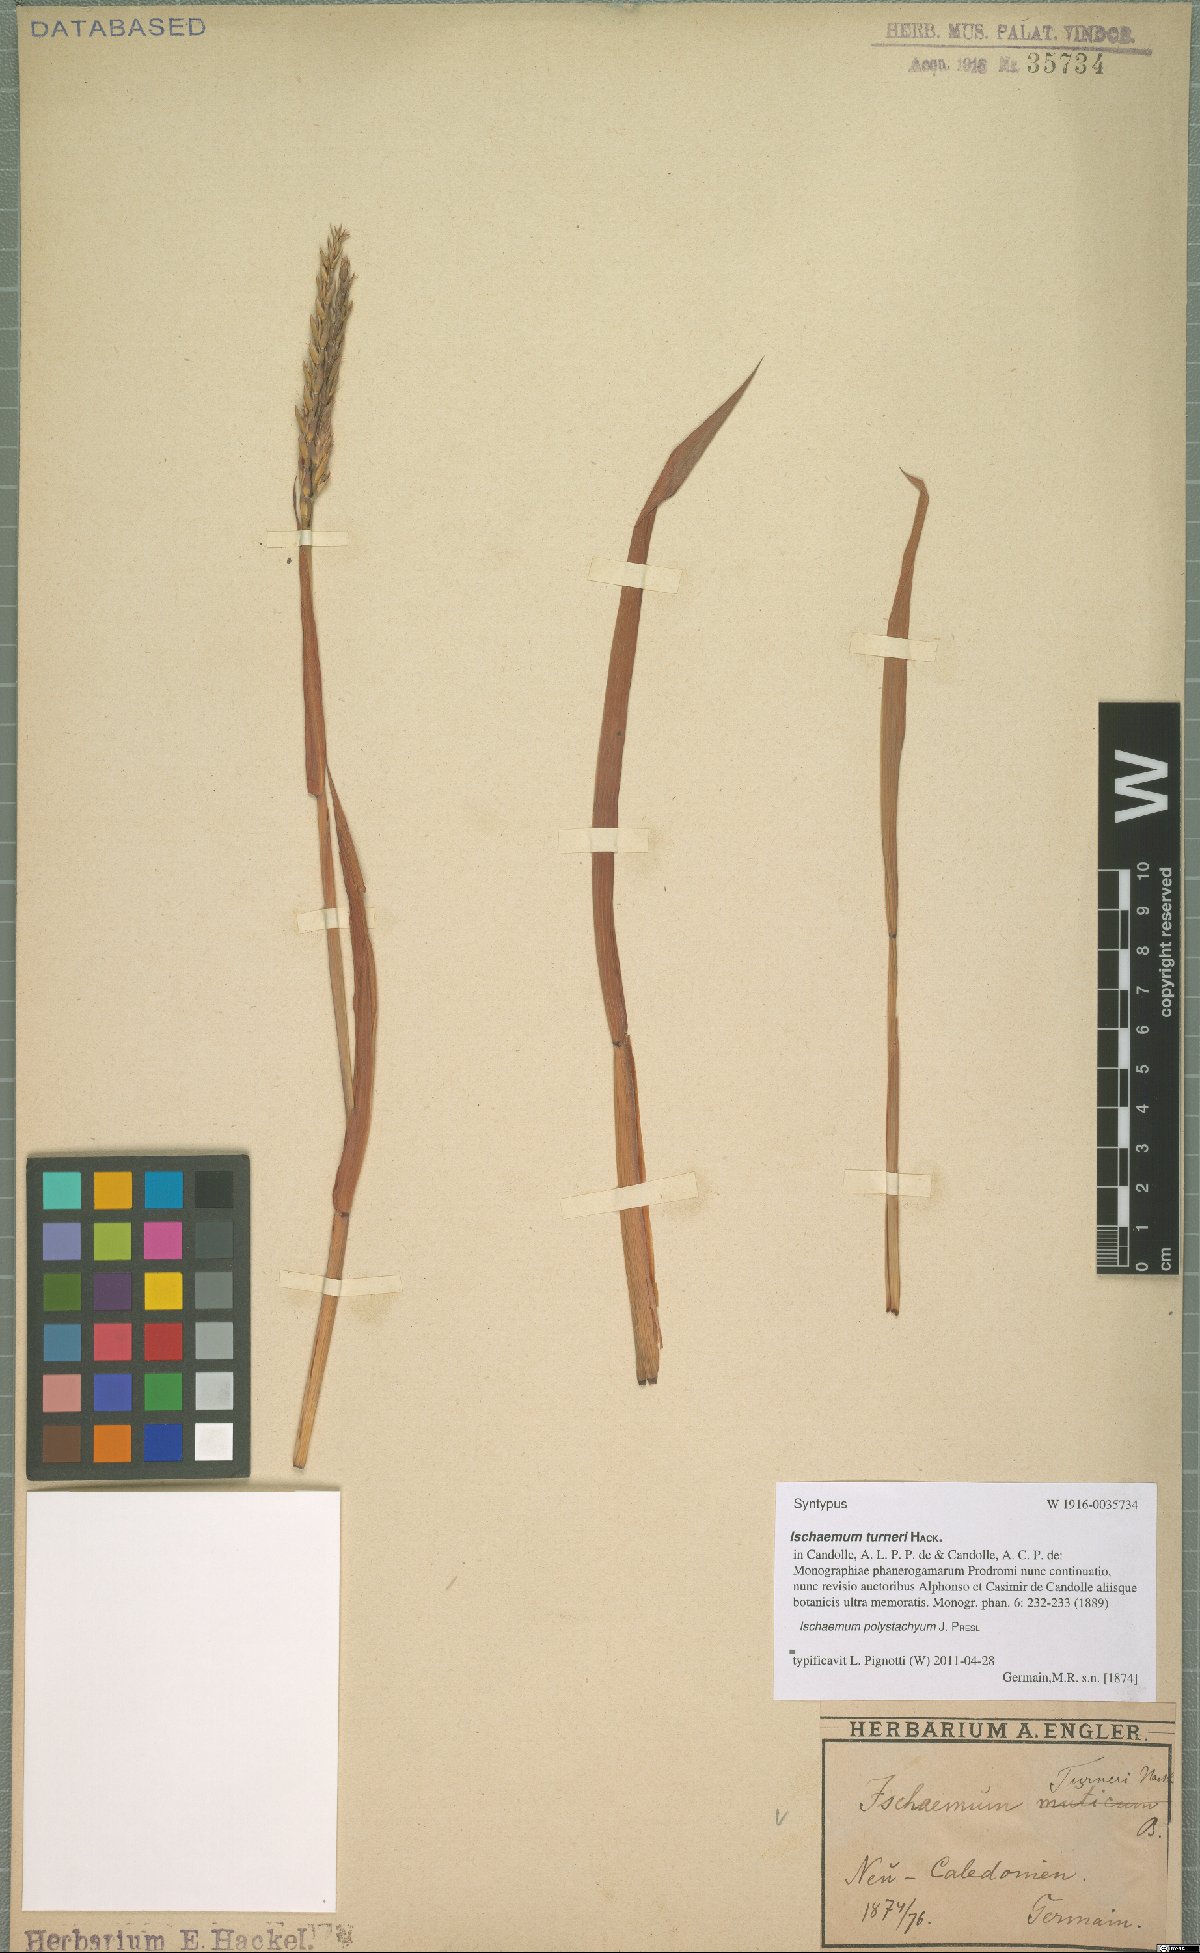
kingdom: Plantae
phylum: Tracheophyta
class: Liliopsida
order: Poales
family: Poaceae
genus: Ischaemum
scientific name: Ischaemum polystachyum
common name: Paddle grass
